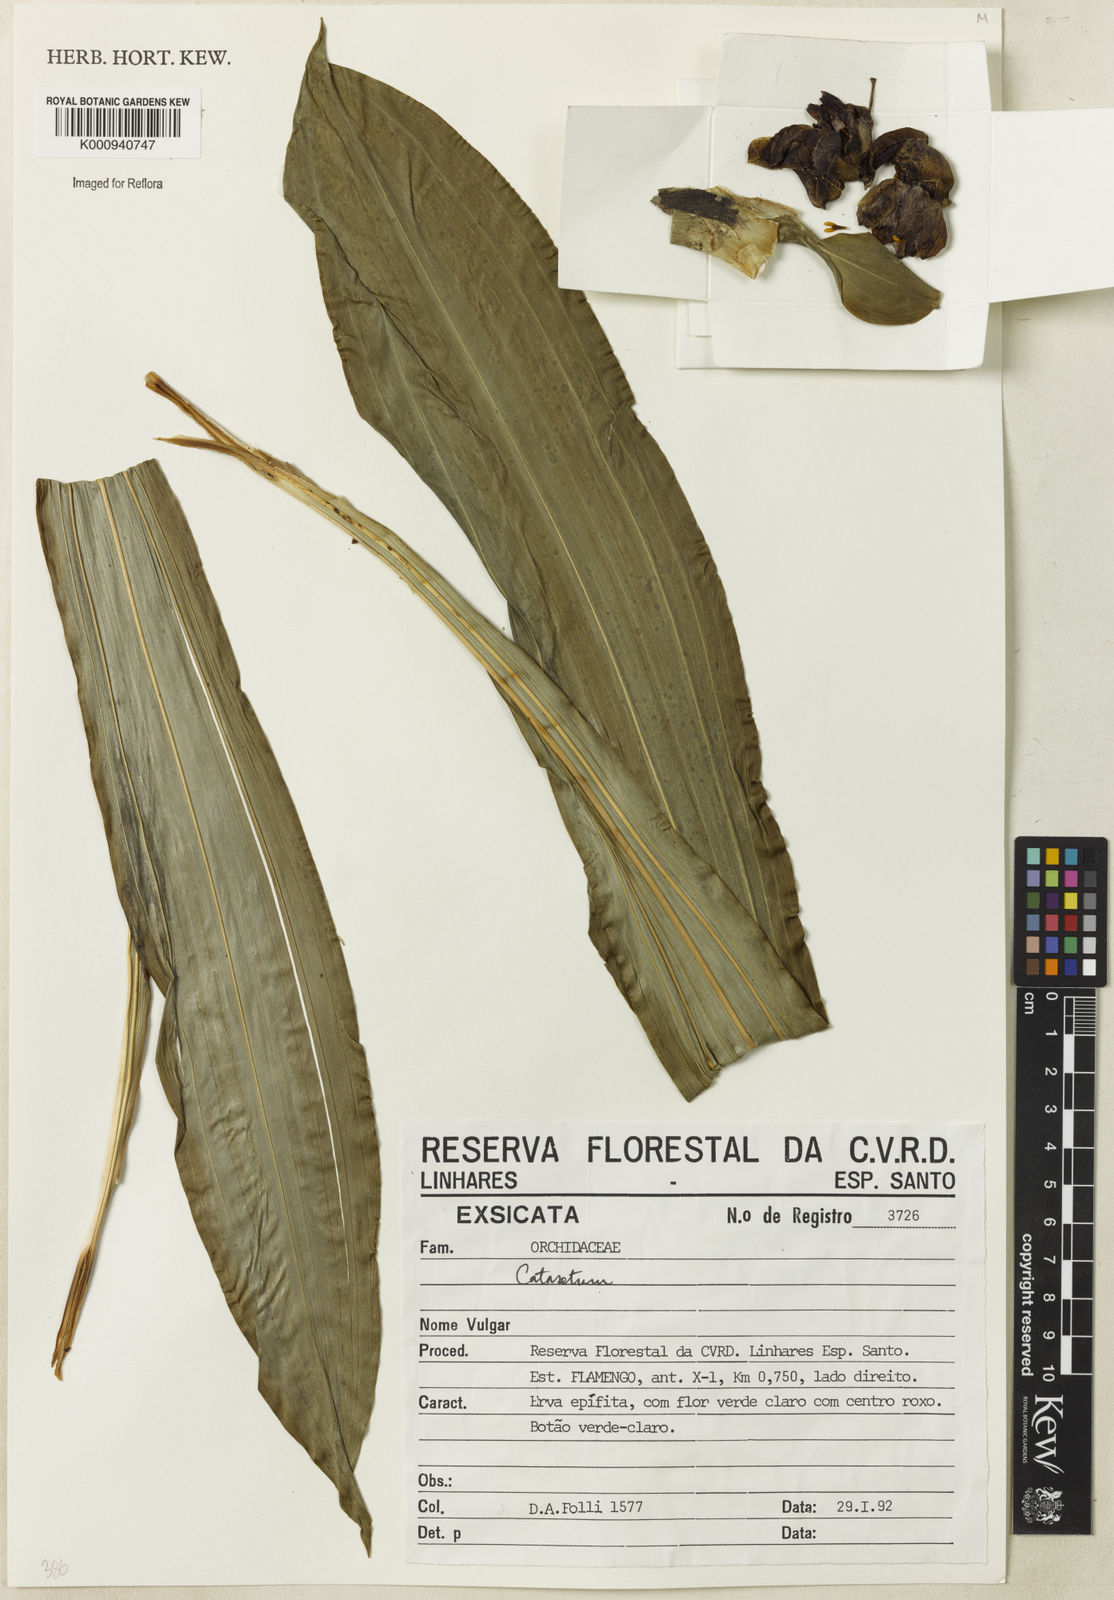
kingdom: Plantae
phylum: Tracheophyta
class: Liliopsida
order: Asparagales
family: Orchidaceae
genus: Catasetum
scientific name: Catasetum
